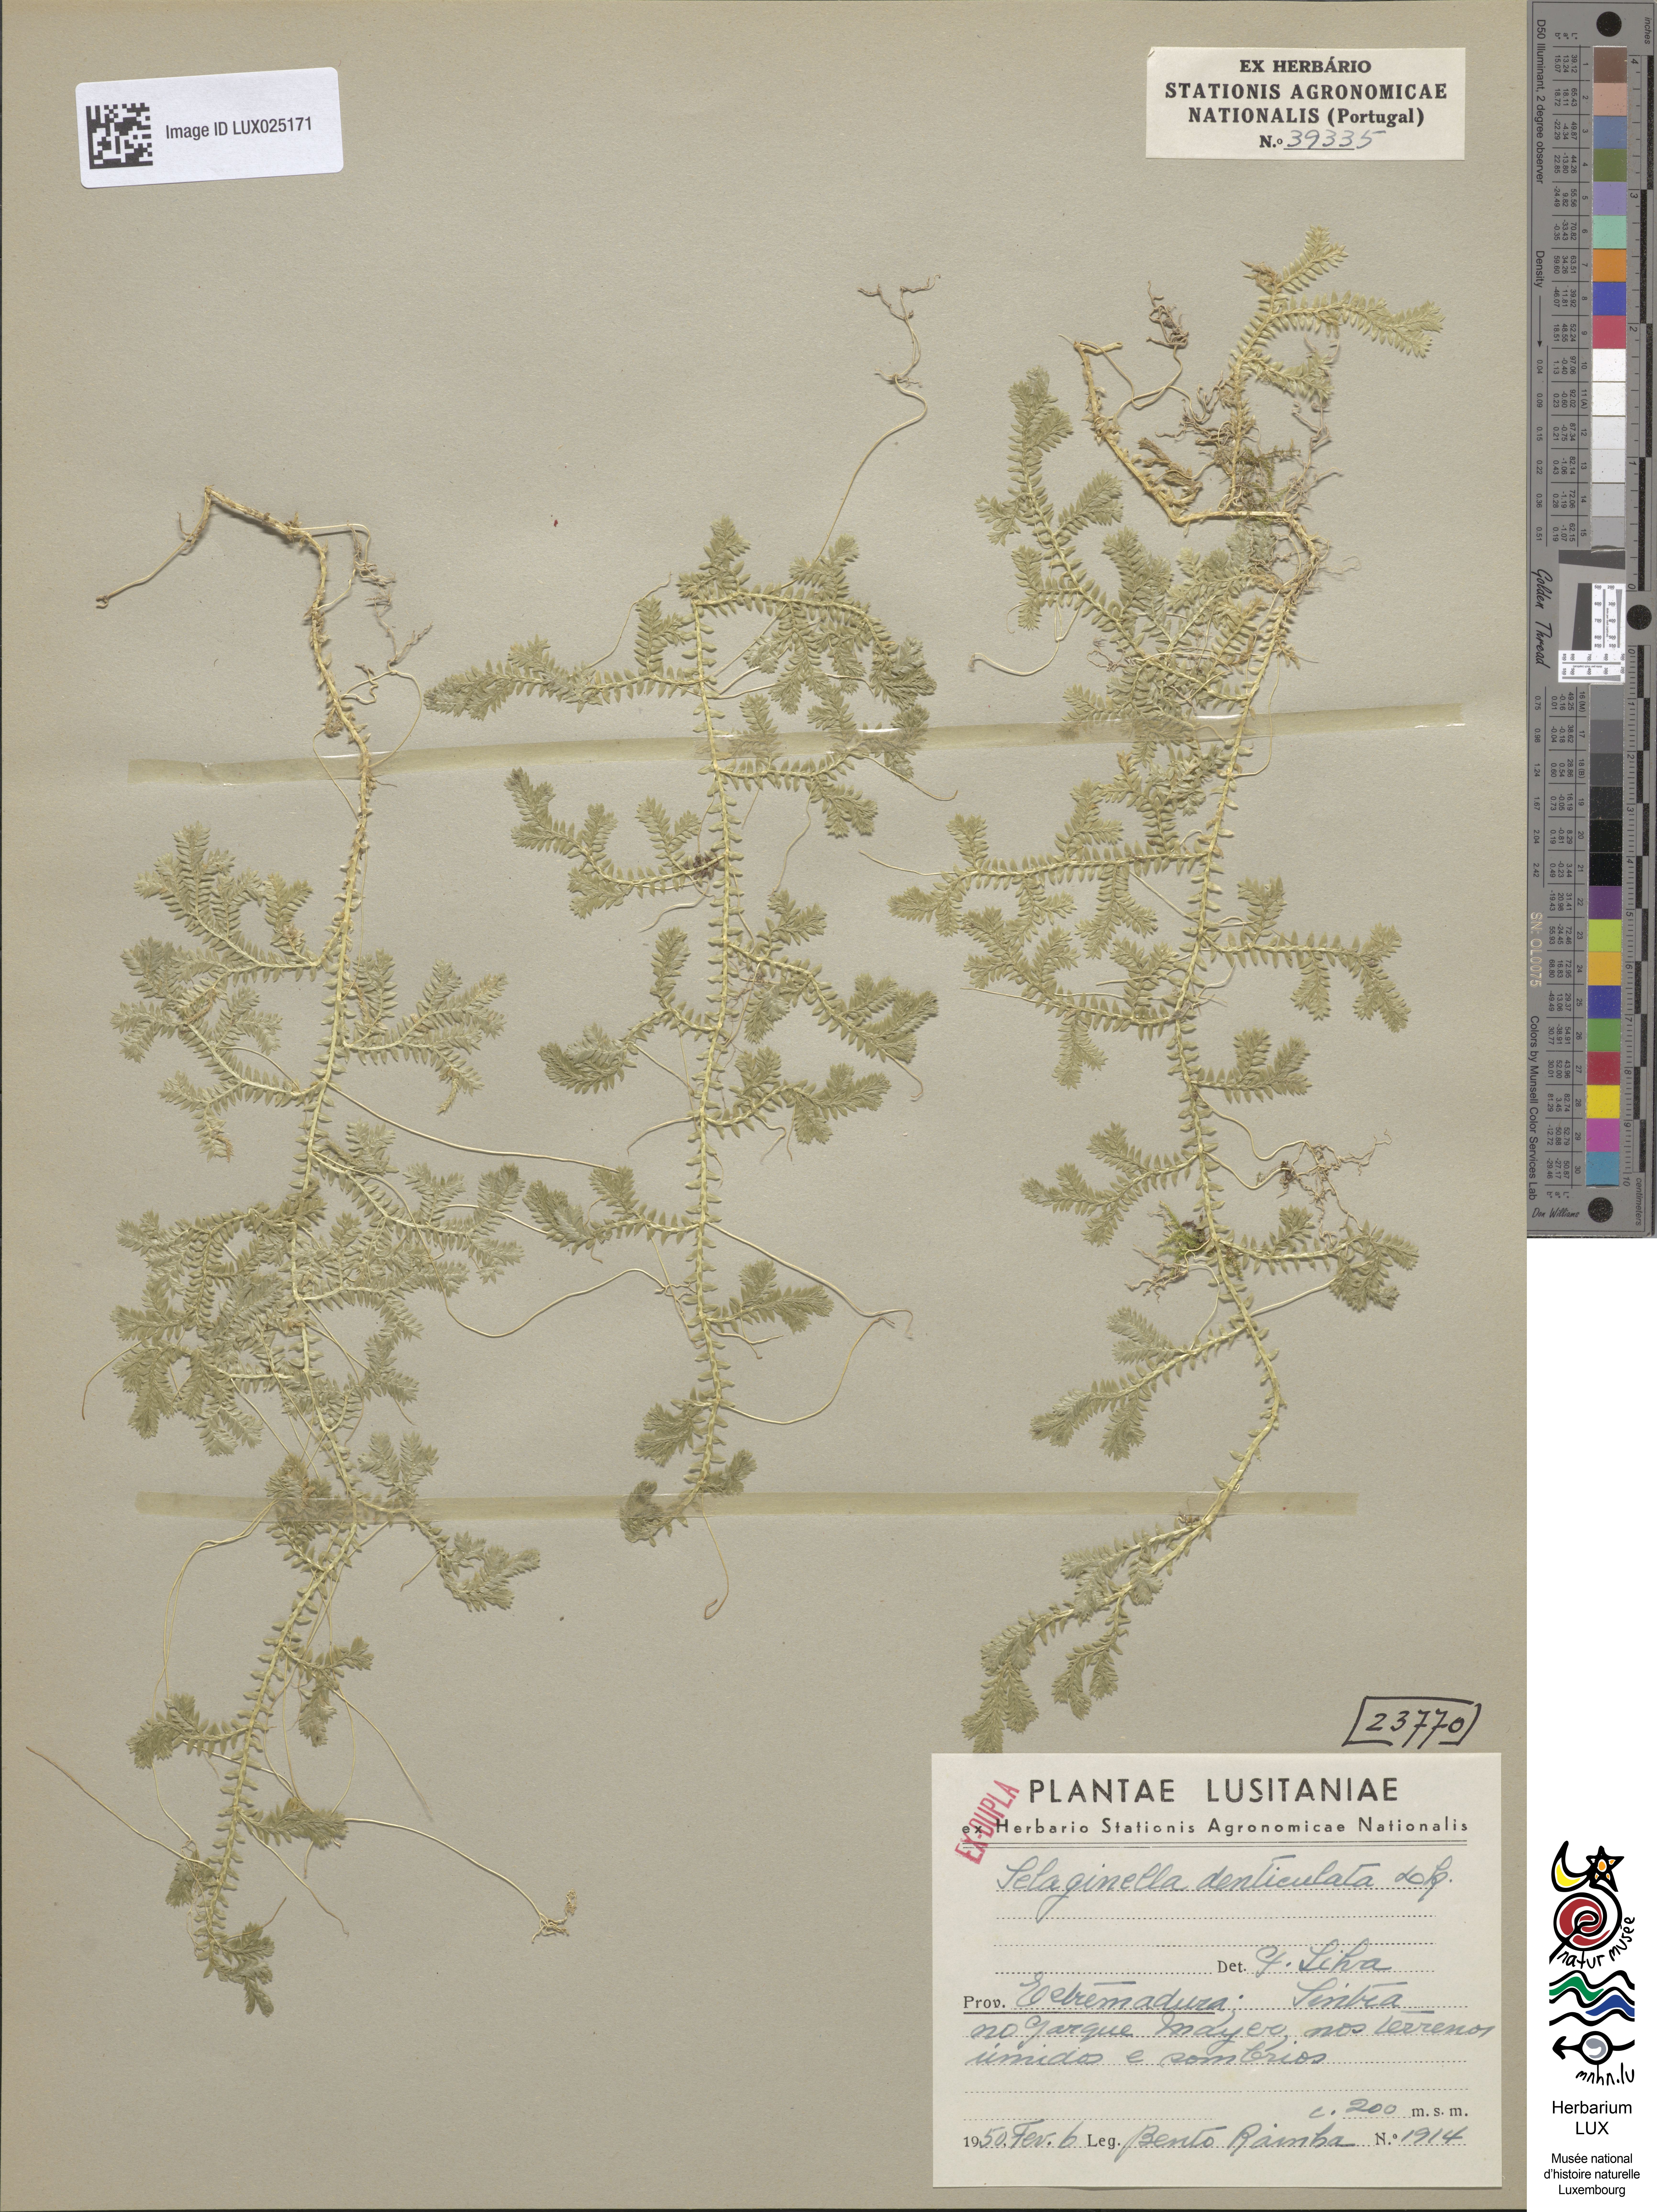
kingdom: Plantae
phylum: Tracheophyta
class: Lycopodiopsida
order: Selaginellales
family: Selaginellaceae
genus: Selaginella
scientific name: Selaginella denticulata
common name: Toothed-leaved clubmoss
